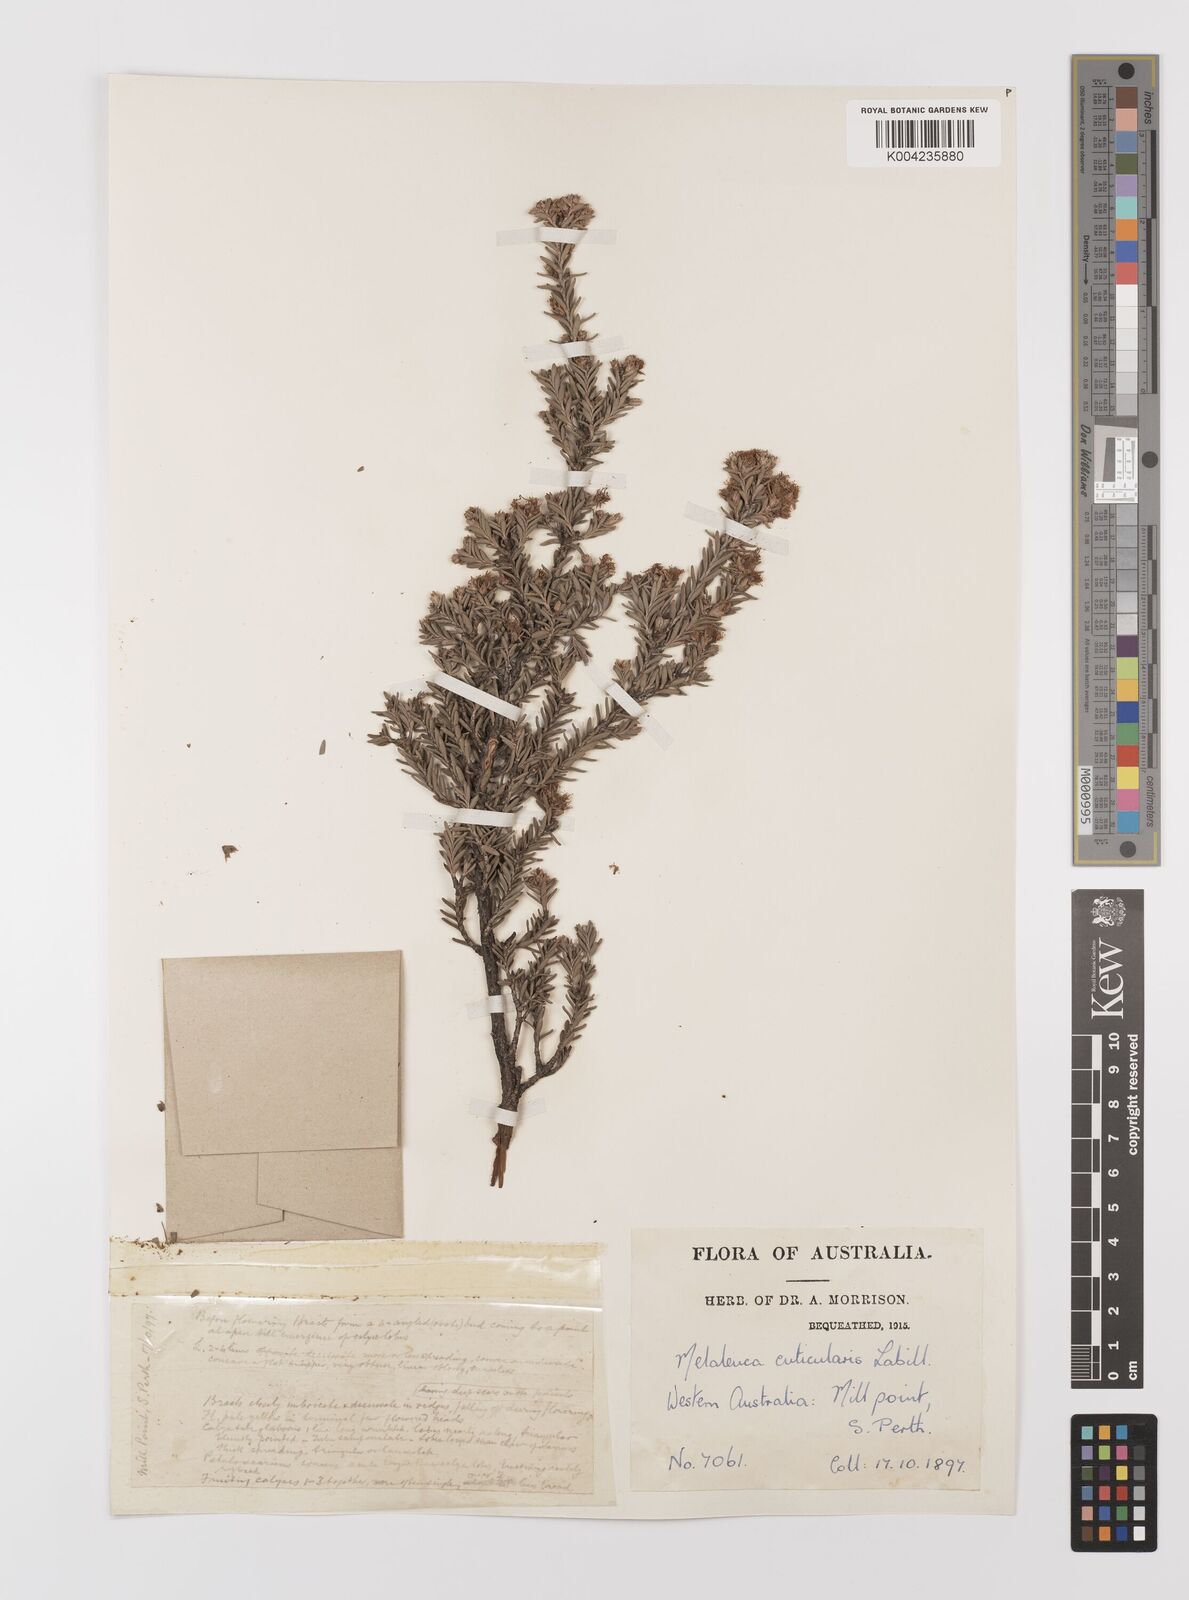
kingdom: Plantae
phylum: Tracheophyta
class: Magnoliopsida
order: Myrtales
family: Myrtaceae
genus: Melaleuca
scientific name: Melaleuca cuticularis
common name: Saltwater paperbark
